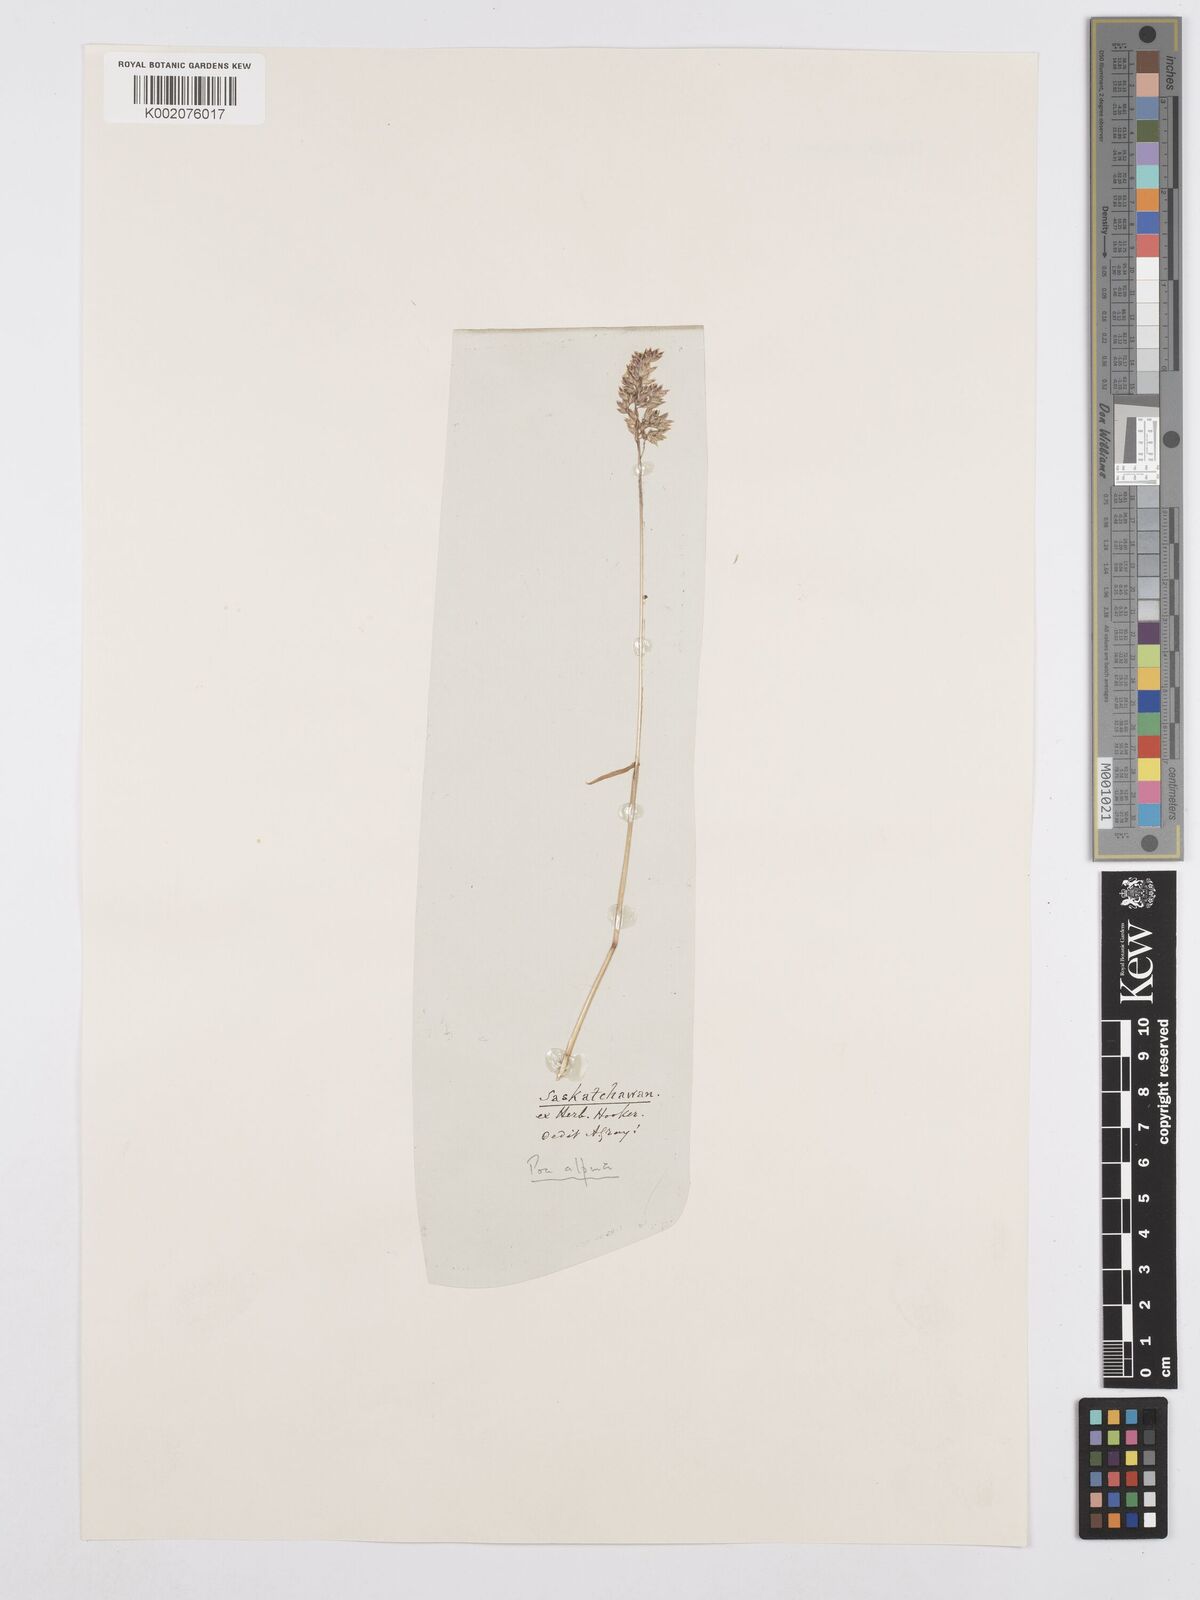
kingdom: Plantae
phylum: Tracheophyta
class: Liliopsida
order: Poales
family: Poaceae
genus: Poa
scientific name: Poa alpina
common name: Alpine bluegrass
